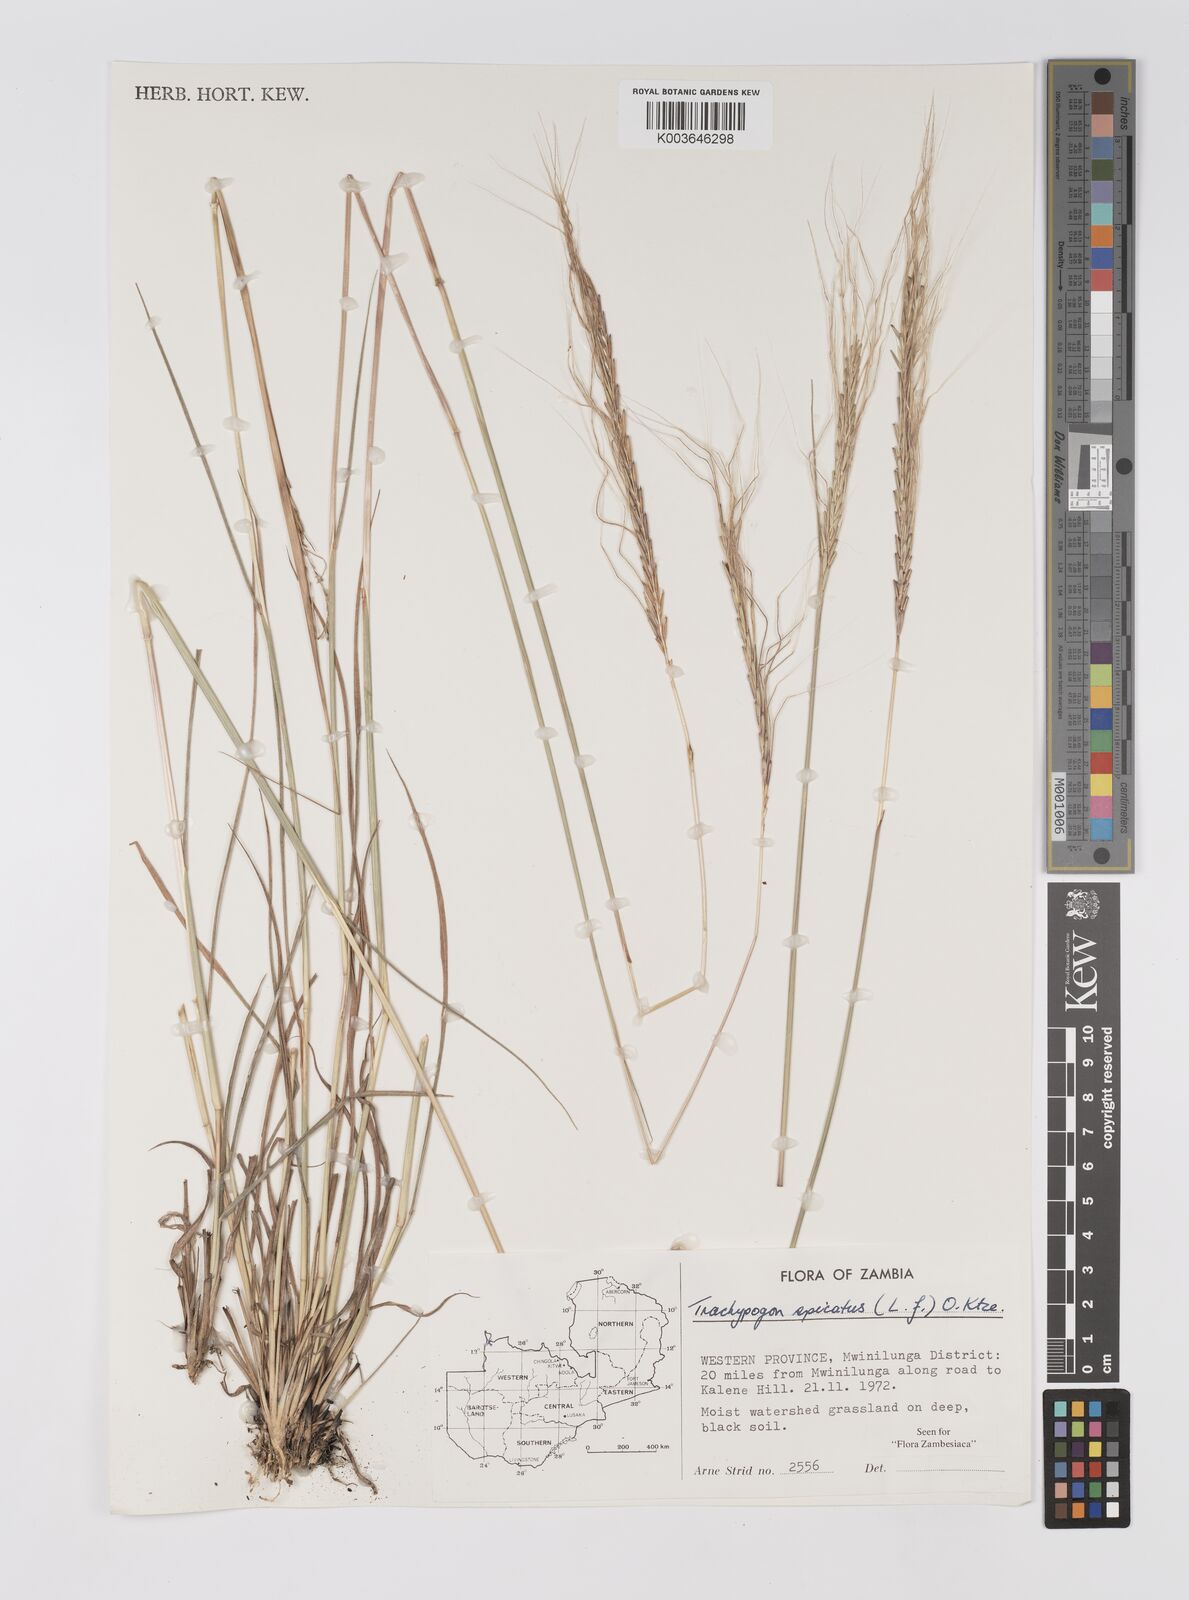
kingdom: Plantae
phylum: Tracheophyta
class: Liliopsida
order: Poales
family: Poaceae
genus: Trachypogon
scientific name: Trachypogon spicatus
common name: Crinkle-awn
